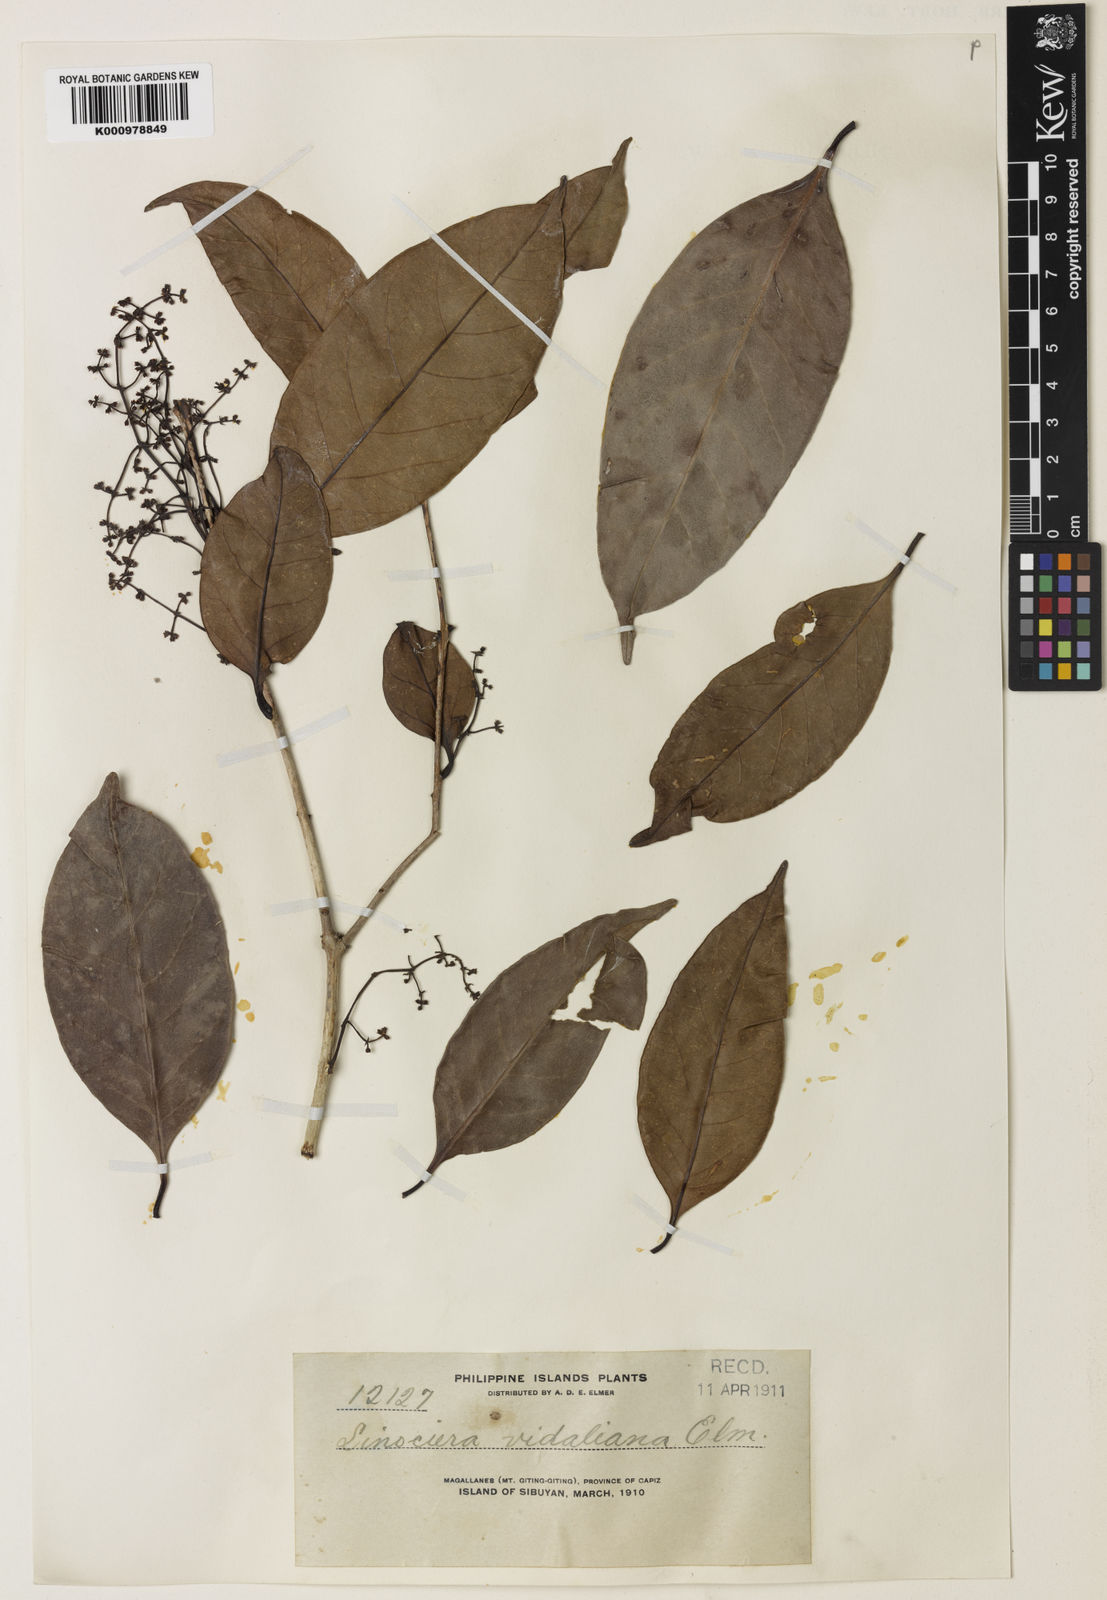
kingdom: Plantae
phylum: Tracheophyta
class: Magnoliopsida
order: Lamiales
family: Oleaceae
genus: Chionanthus
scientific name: Chionanthus
